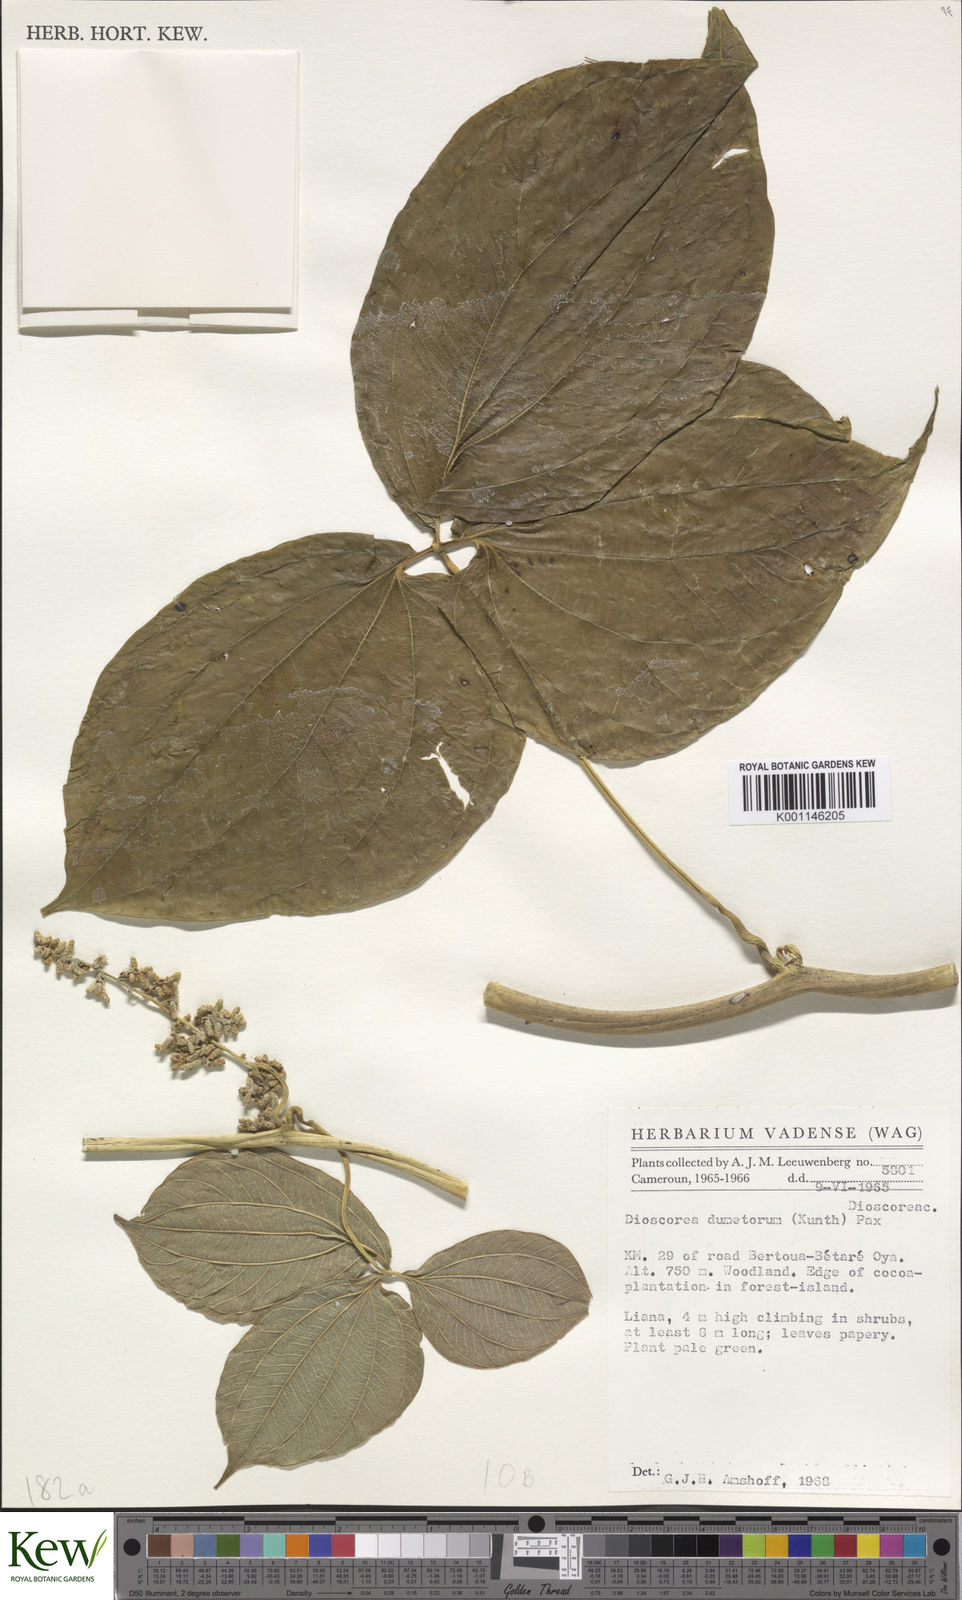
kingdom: Plantae
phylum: Tracheophyta
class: Liliopsida
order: Dioscoreales
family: Dioscoreaceae
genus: Dioscorea
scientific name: Dioscorea dumetorum
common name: African bitter yam
